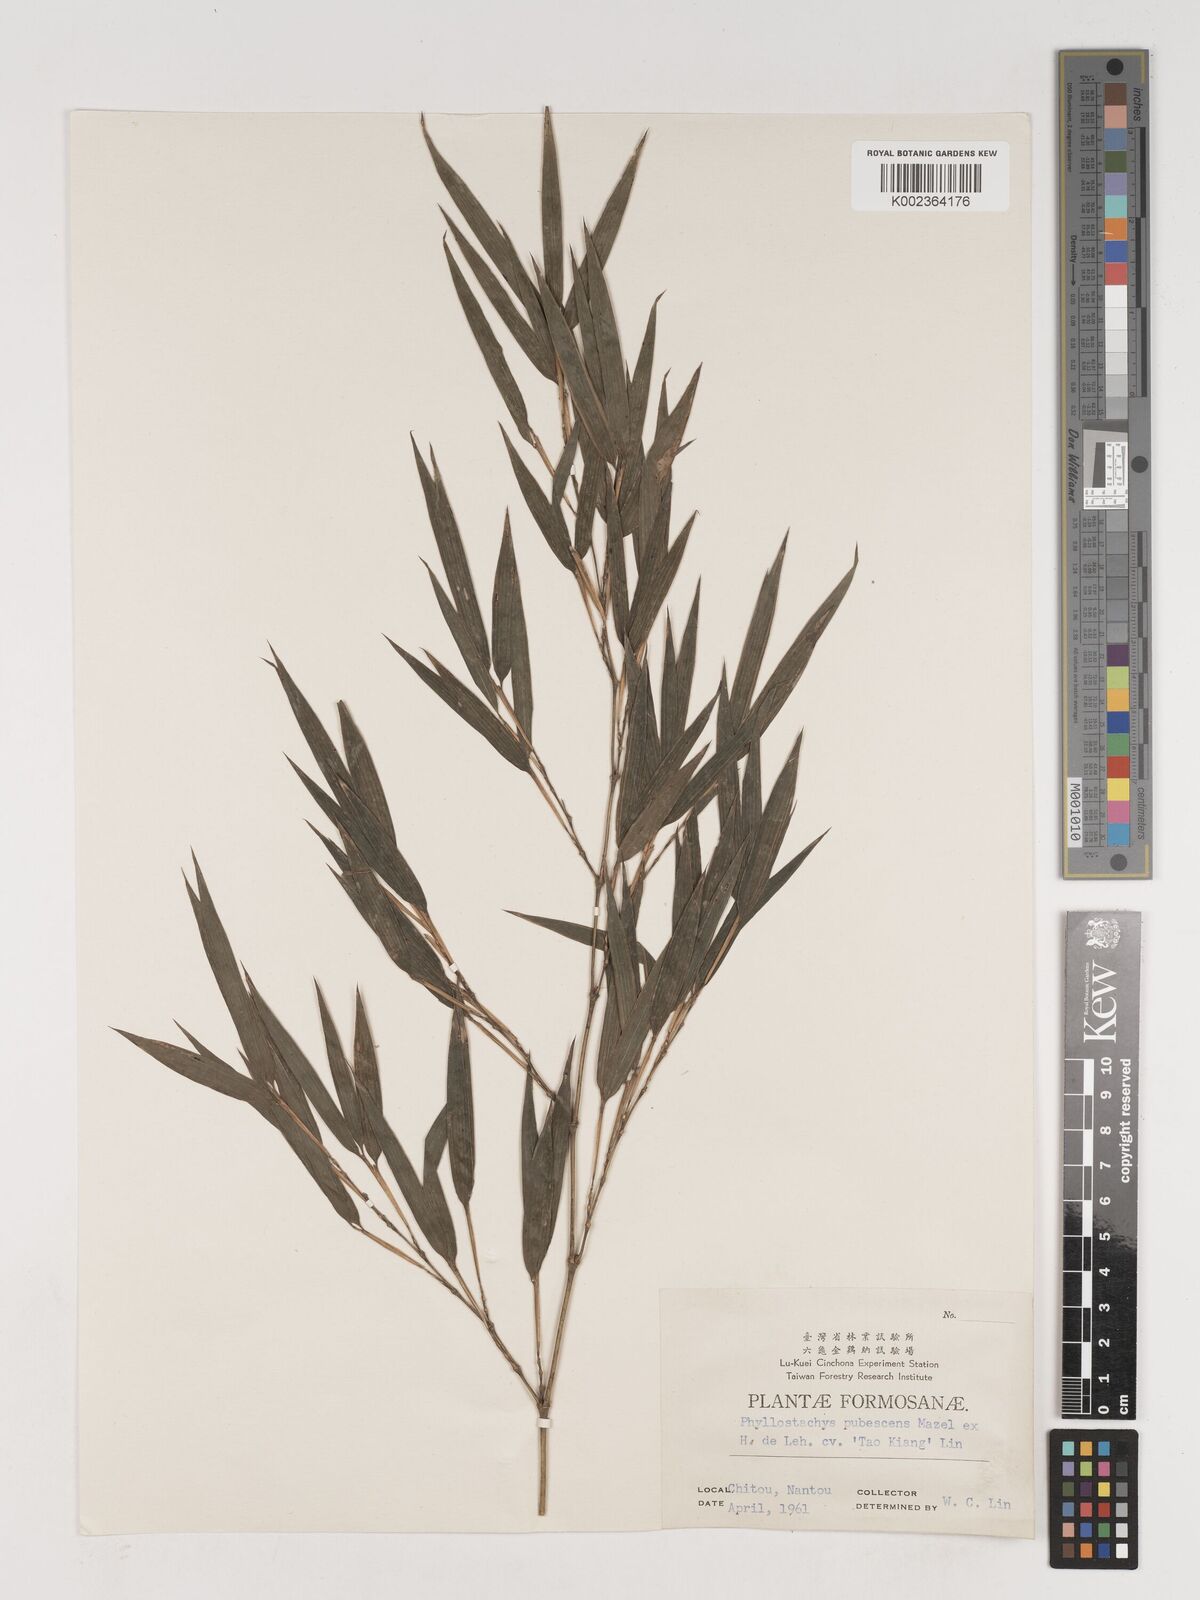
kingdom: Plantae
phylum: Tracheophyta
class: Liliopsida
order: Poales
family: Poaceae
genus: Phyllostachys
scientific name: Phyllostachys nidularia
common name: Broom bamboo
